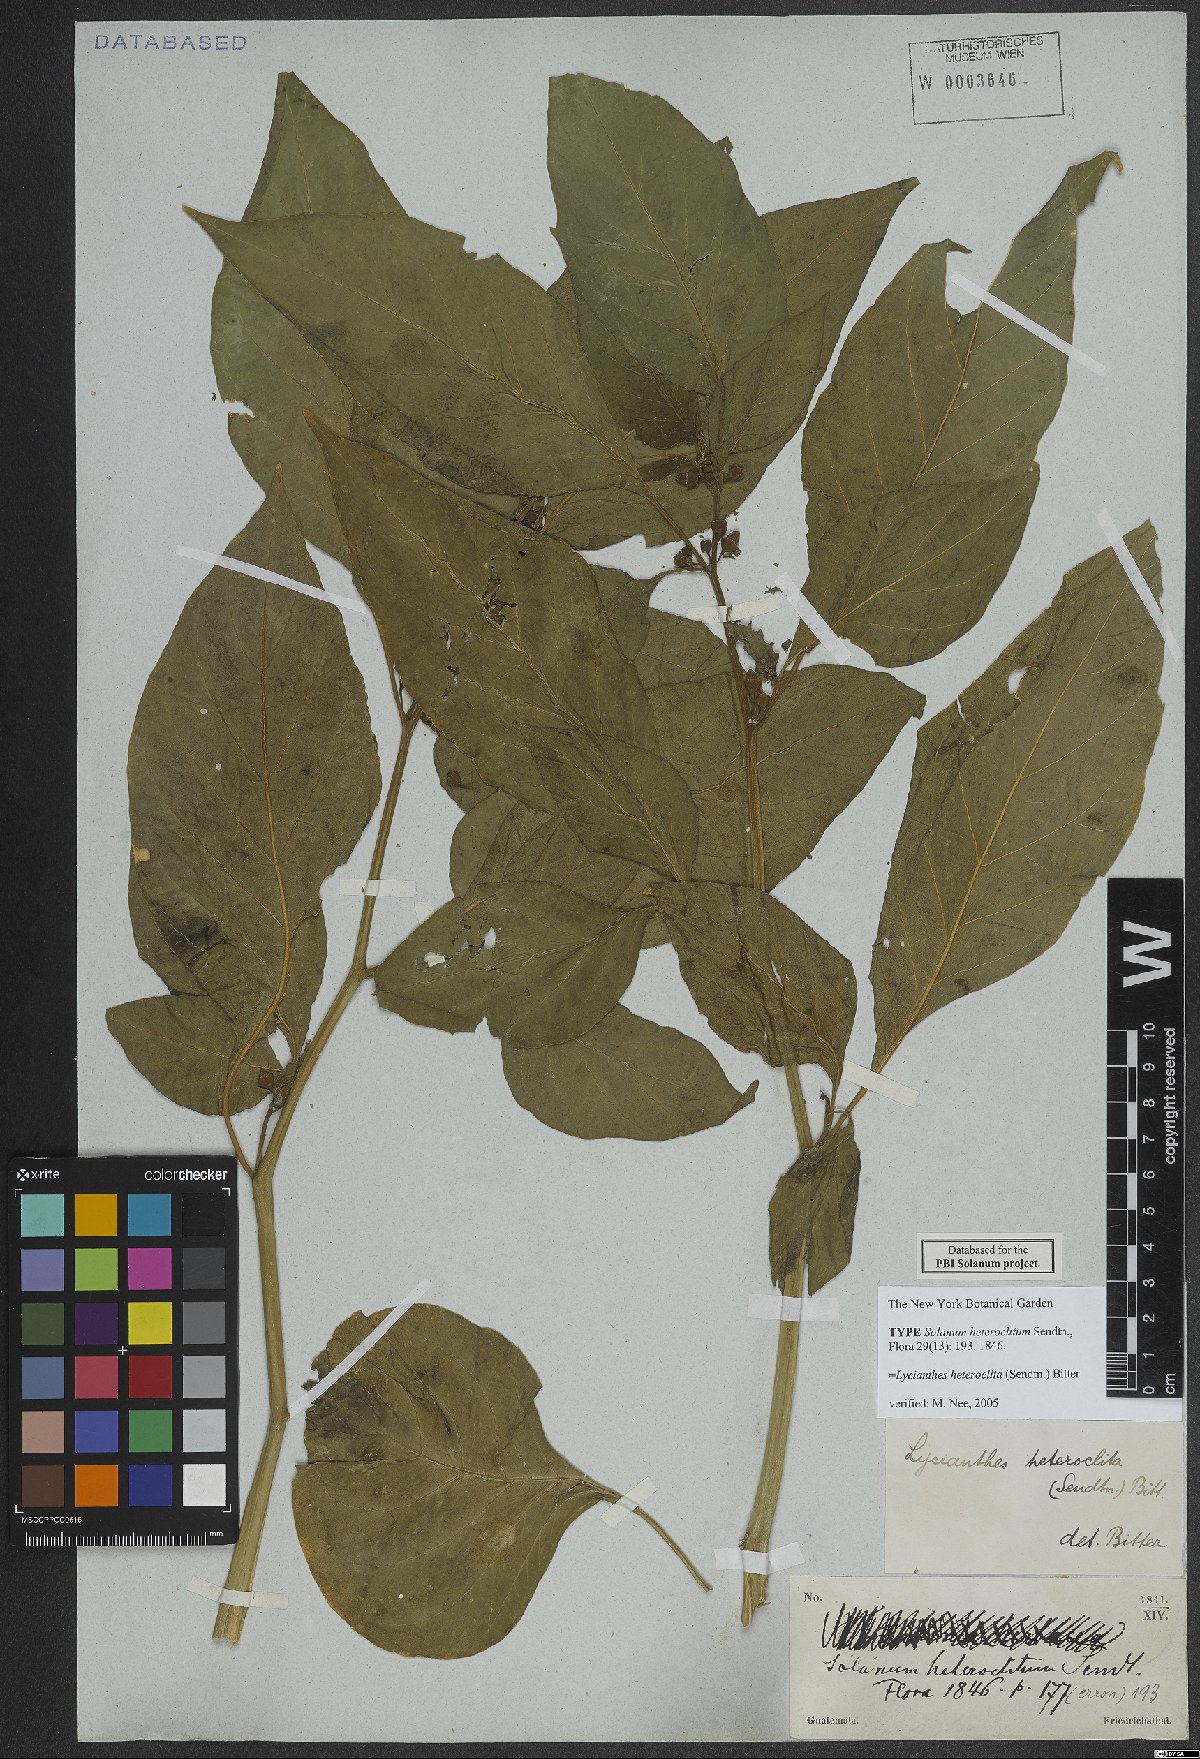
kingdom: Plantae
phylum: Tracheophyta
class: Magnoliopsida
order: Solanales
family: Solanaceae
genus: Lycianthes
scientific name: Lycianthes heteroclita
